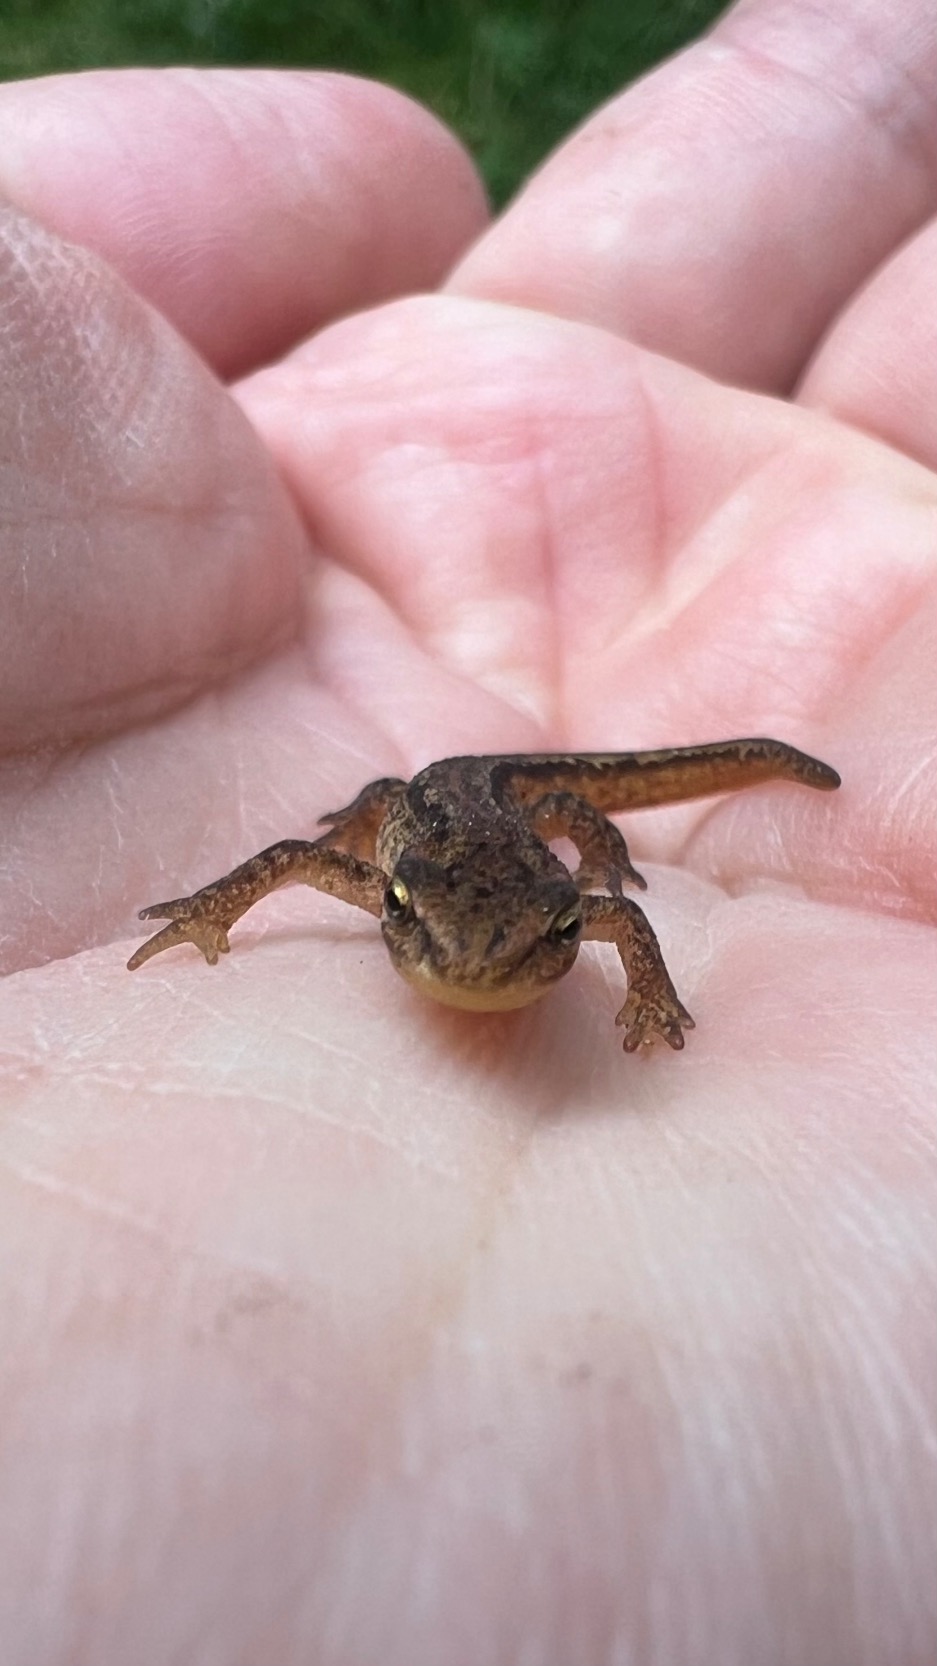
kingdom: Animalia
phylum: Chordata
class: Amphibia
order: Caudata
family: Salamandridae
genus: Lissotriton
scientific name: Lissotriton vulgaris
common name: Lille vandsalamander
